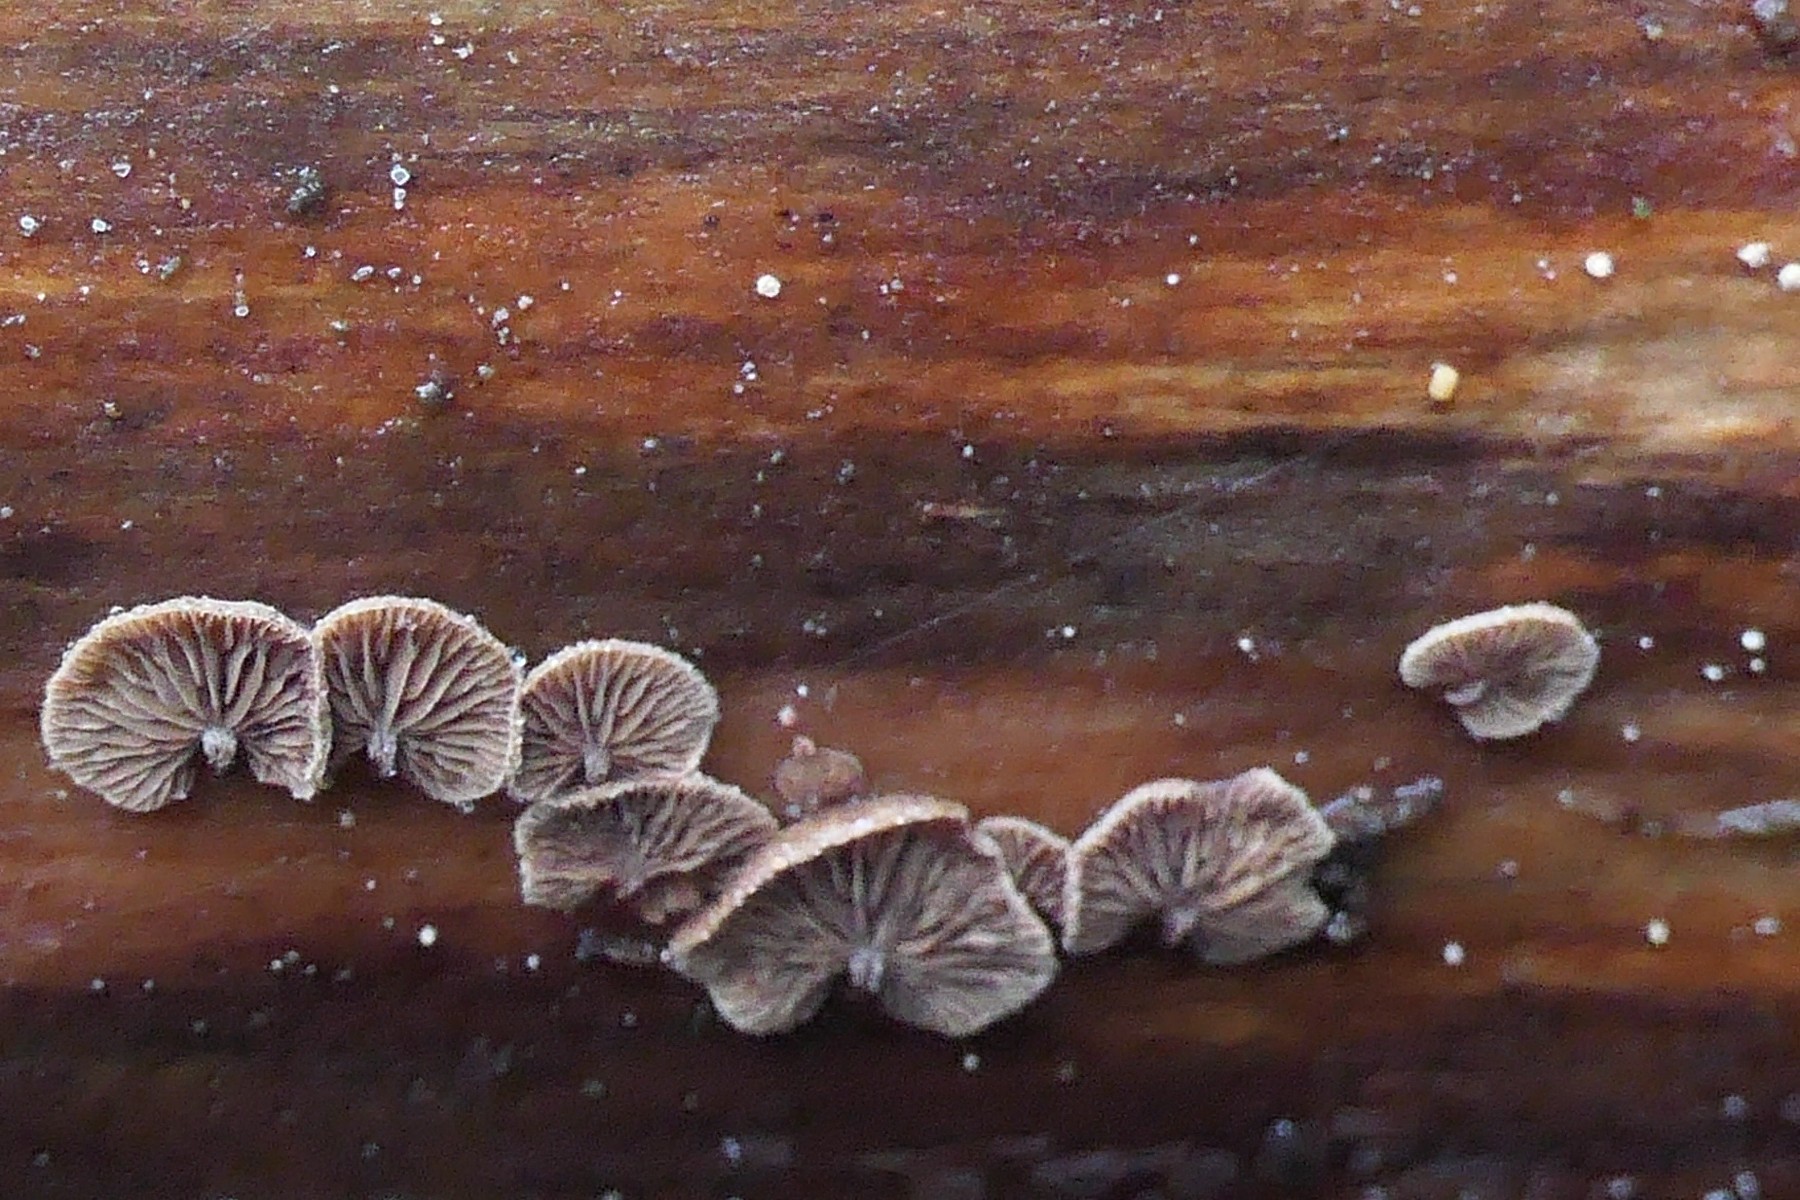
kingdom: Fungi
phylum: Basidiomycota
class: Agaricomycetes
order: Agaricales
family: Strophariaceae
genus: Deconica
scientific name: Deconica horizontalis
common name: ved-stråhat
